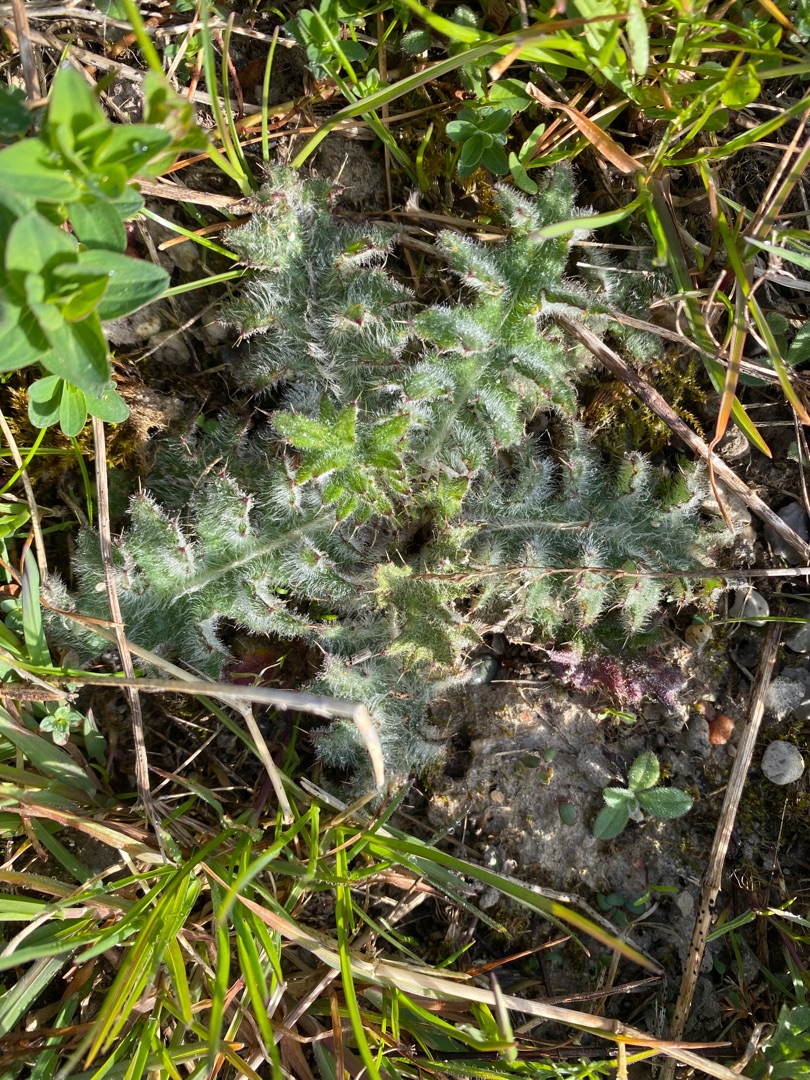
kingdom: Plantae
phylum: Tracheophyta
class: Magnoliopsida
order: Asterales
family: Asteraceae
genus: Cirsium
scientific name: Cirsium vulgare
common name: Horse-tidsel
